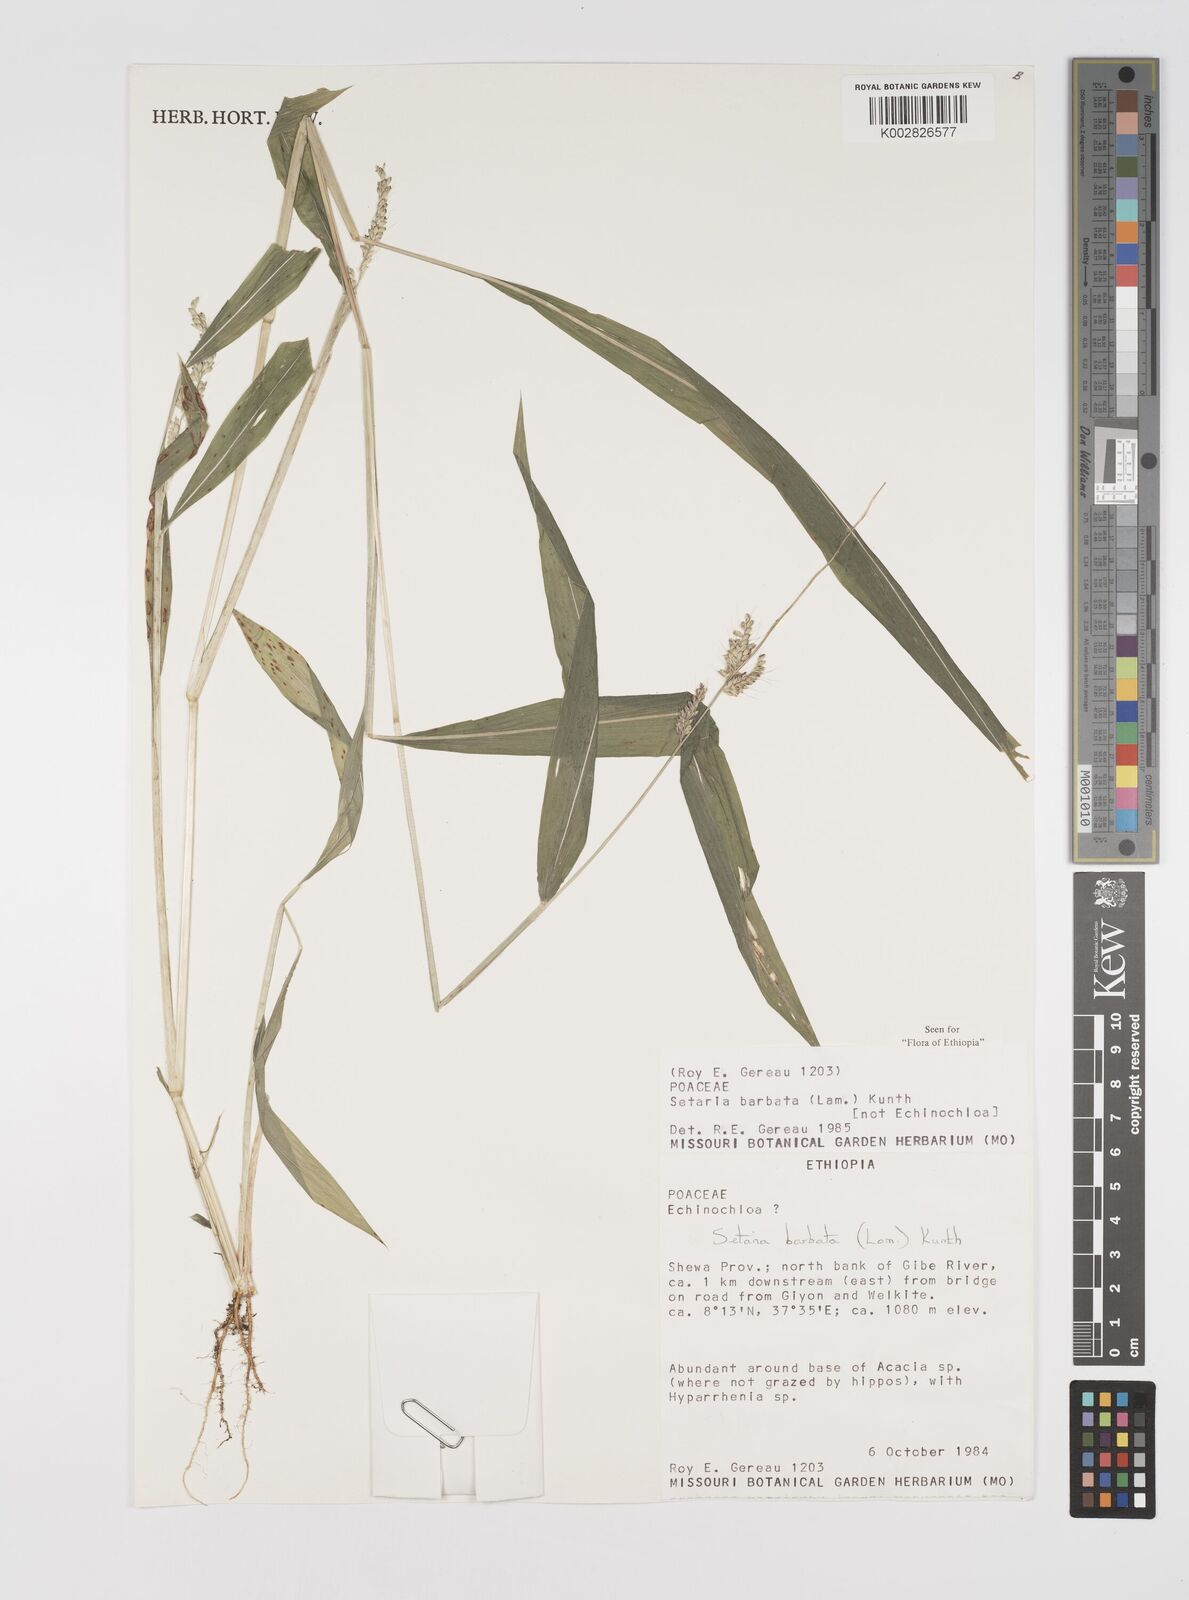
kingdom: Plantae
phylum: Tracheophyta
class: Liliopsida
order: Poales
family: Poaceae
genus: Setaria
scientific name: Setaria barbata
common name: East indian bristlegrass
